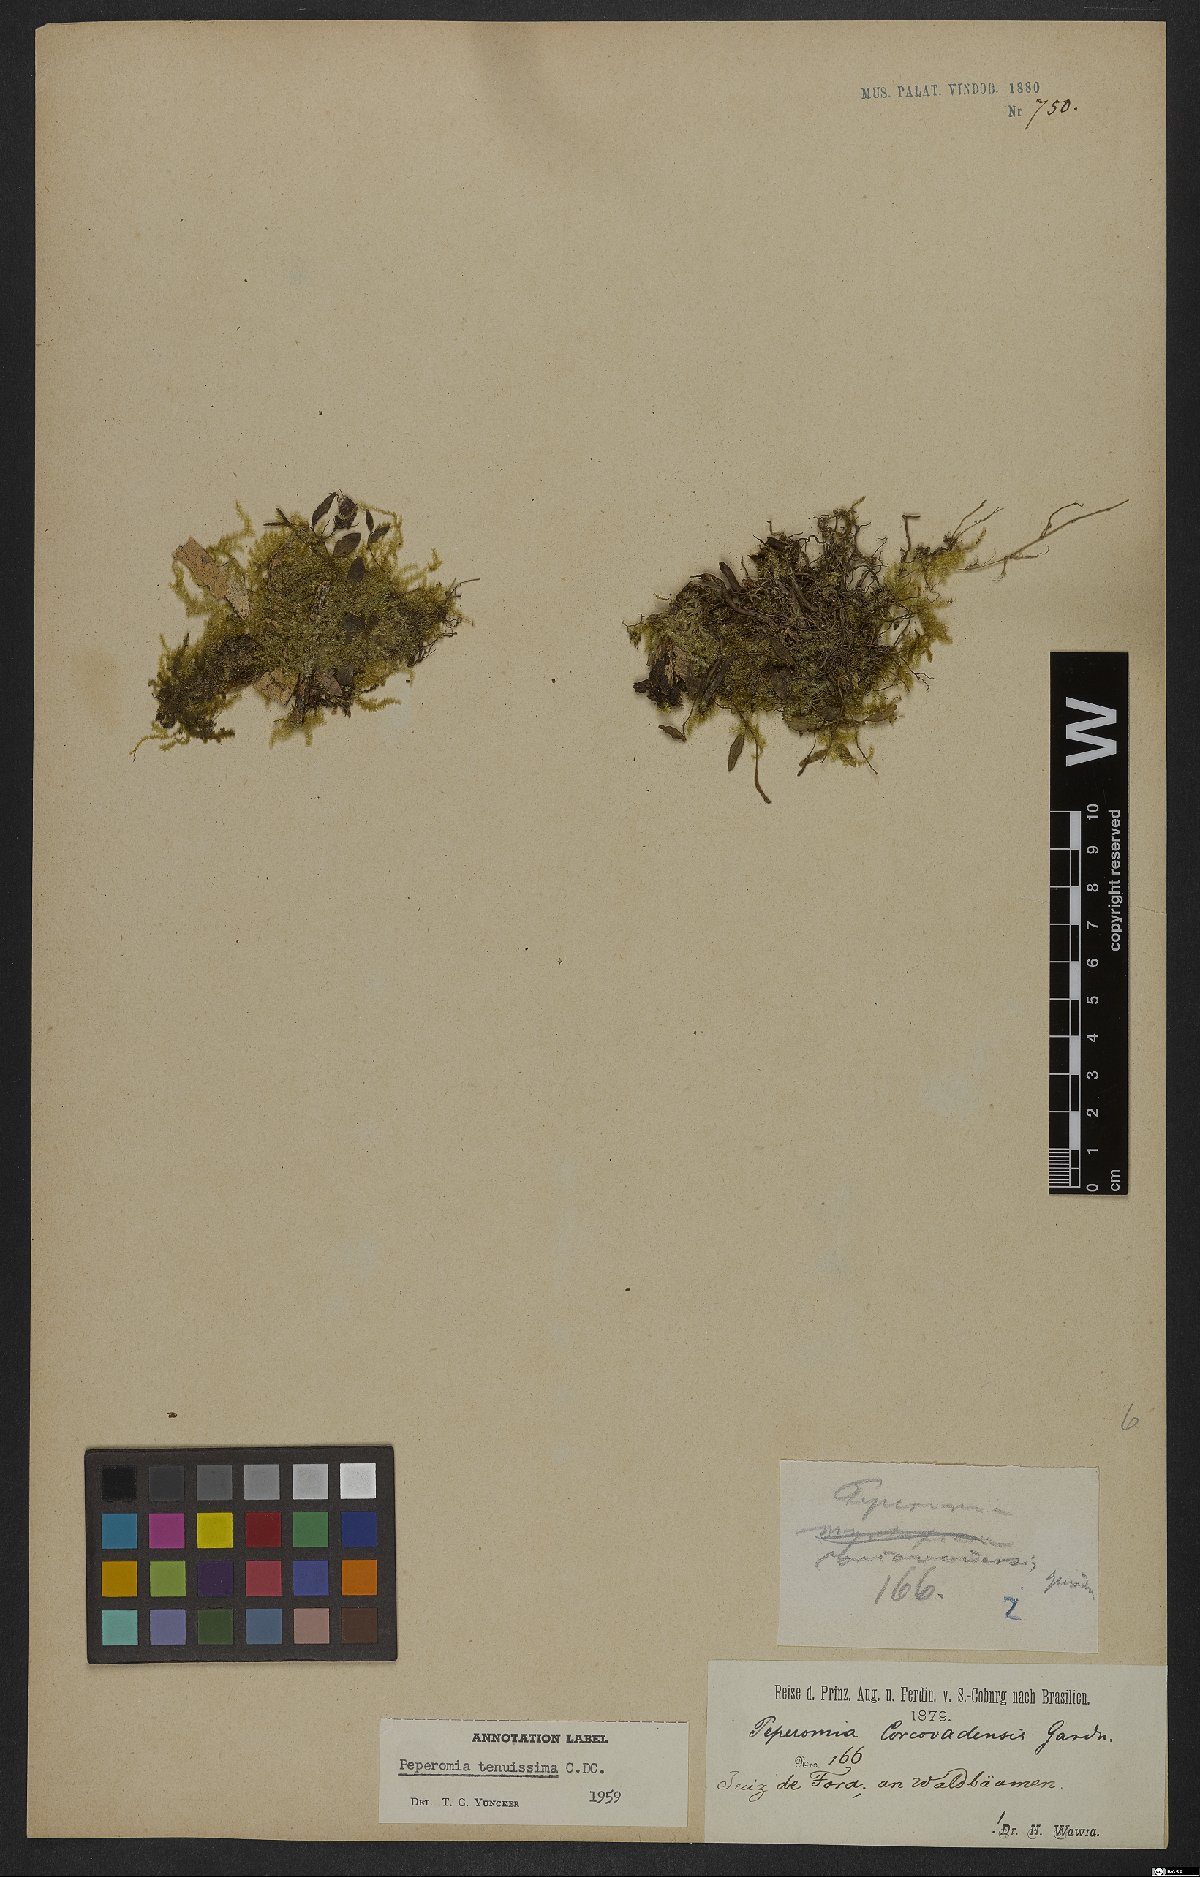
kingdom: Plantae
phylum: Tracheophyta
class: Magnoliopsida
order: Piperales
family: Piperaceae
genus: Peperomia
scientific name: Peperomia tenuissima
